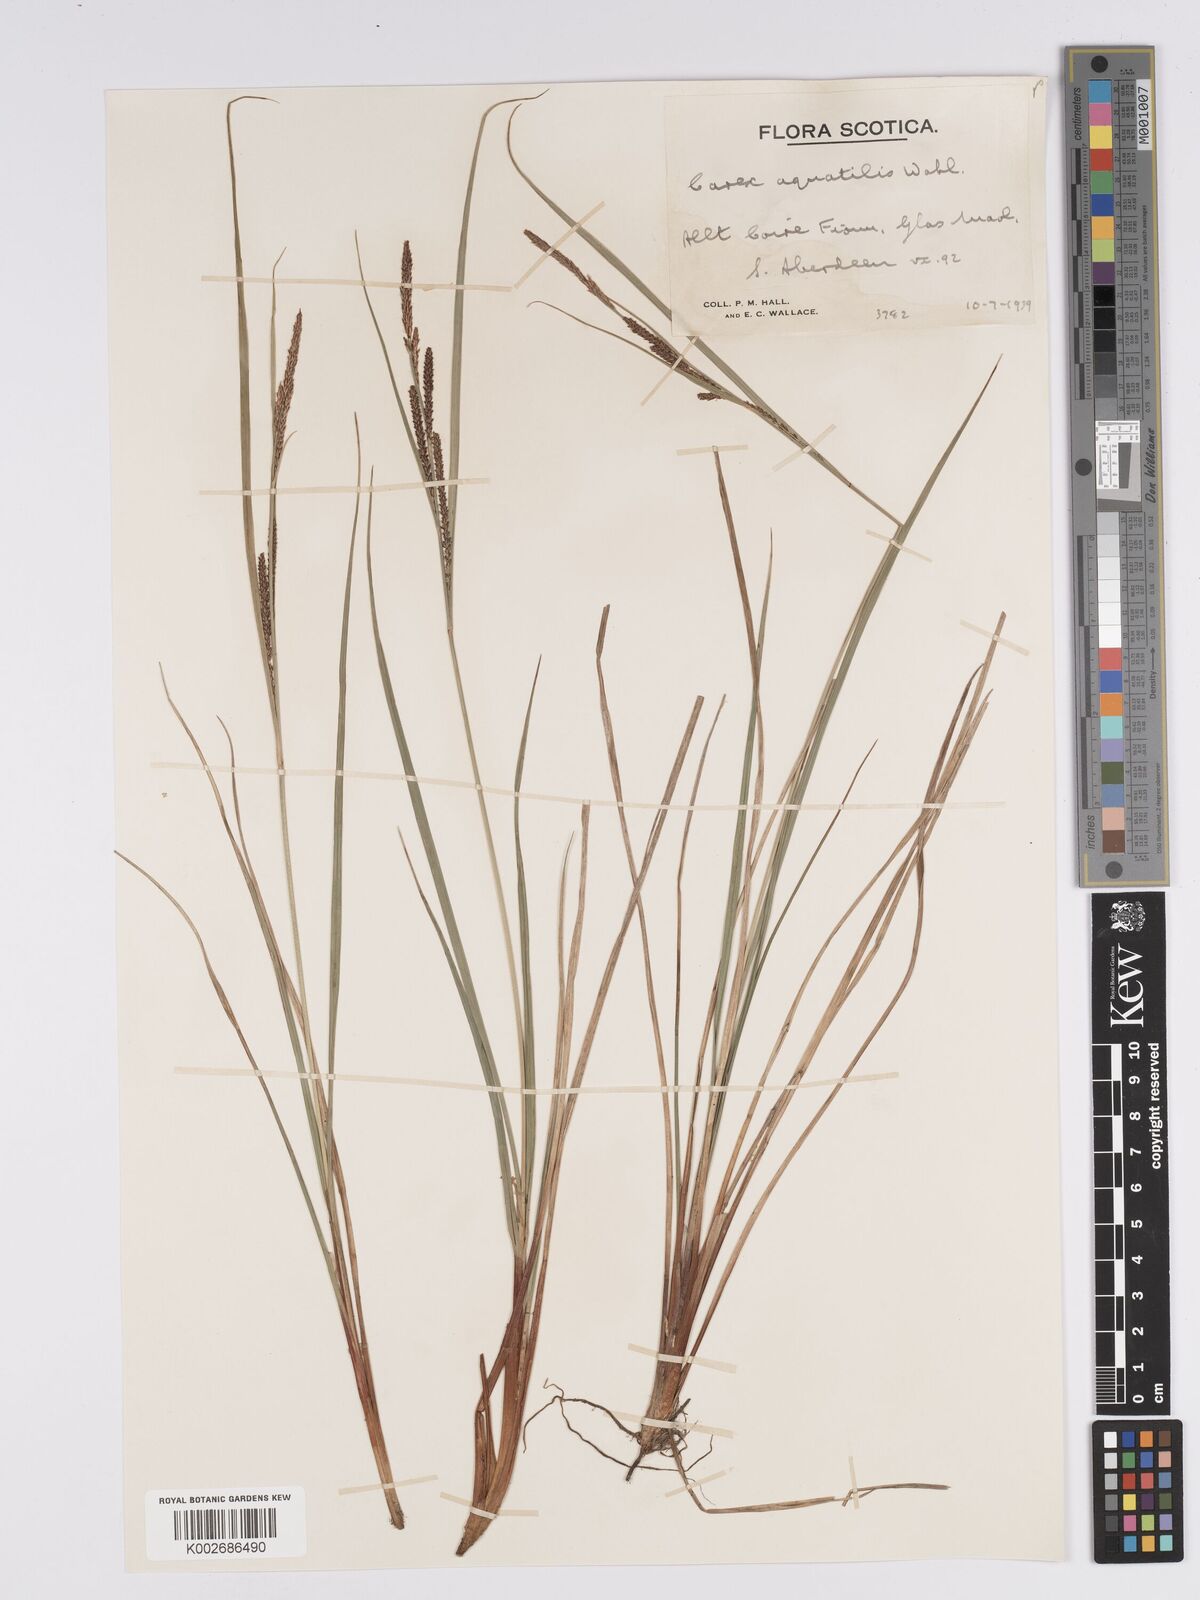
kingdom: Plantae
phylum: Tracheophyta
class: Liliopsida
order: Poales
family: Cyperaceae
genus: Carex
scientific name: Carex aquatilis
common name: Water sedge
